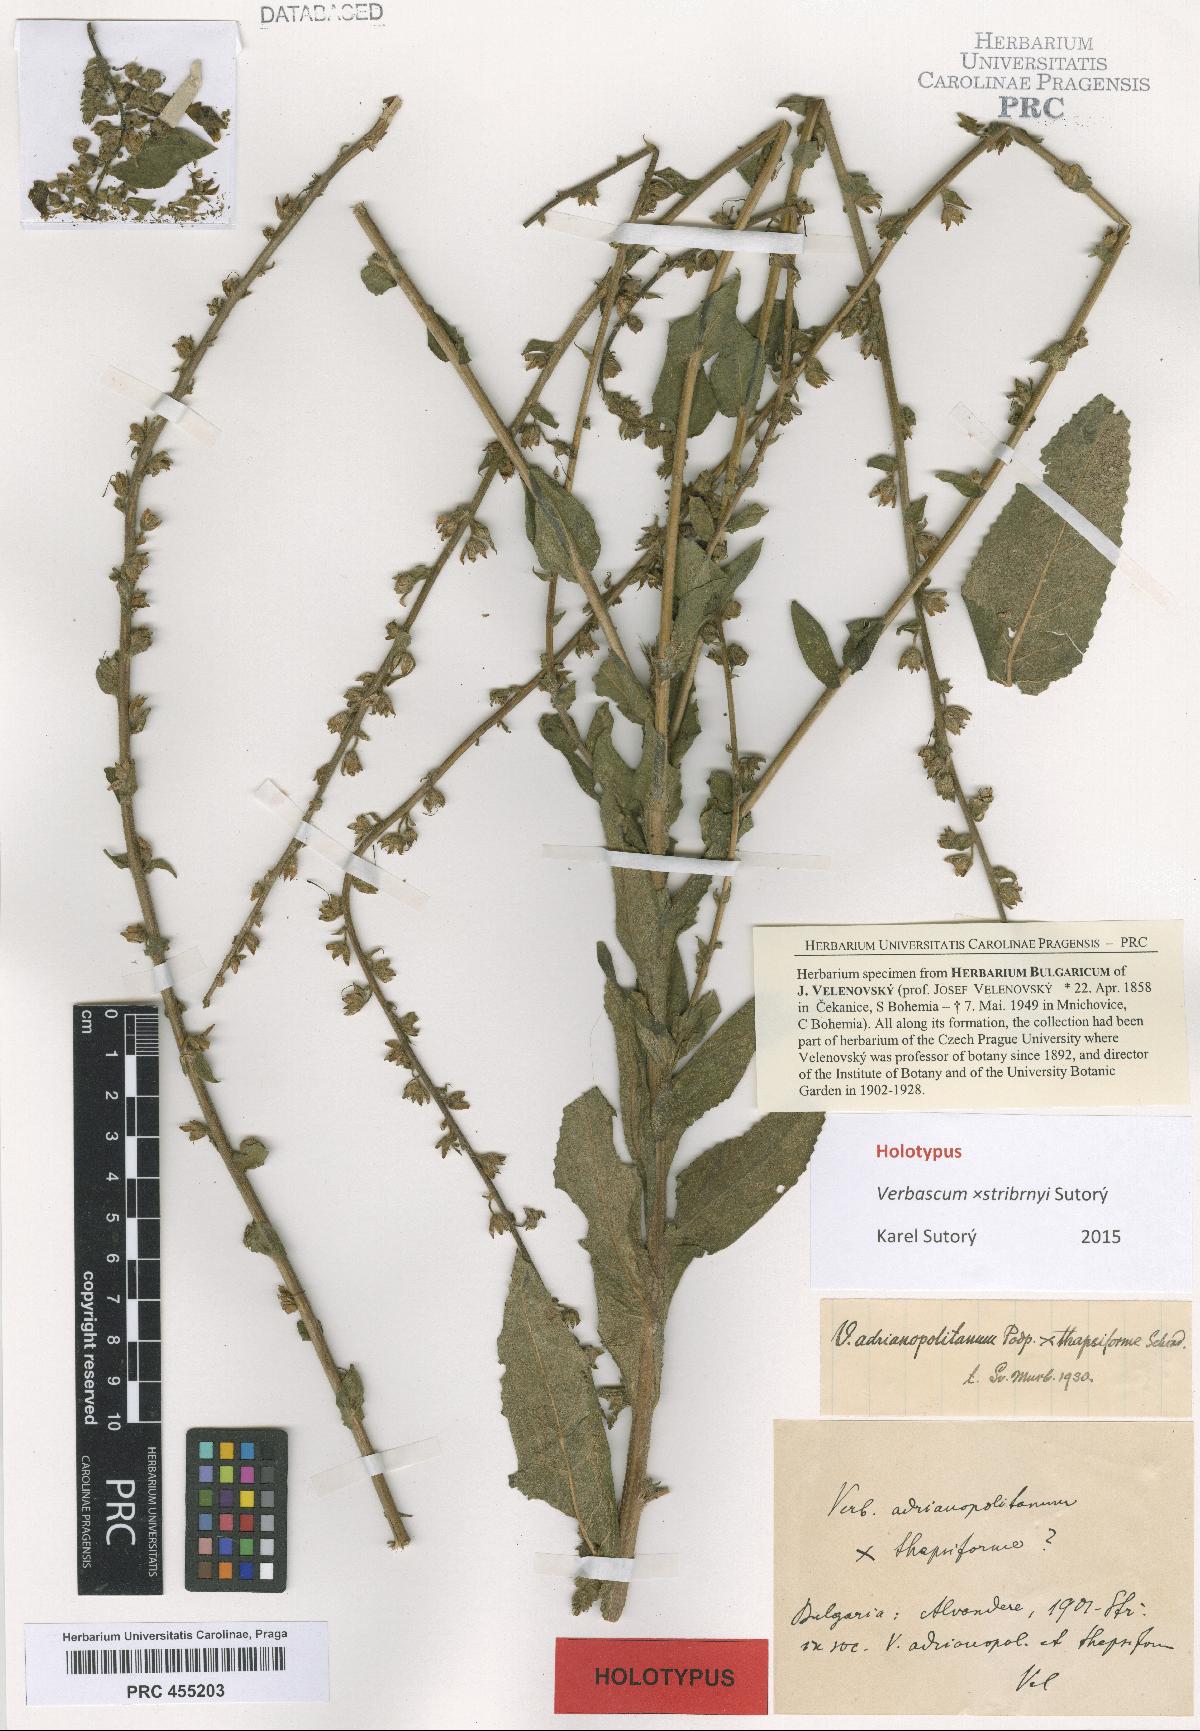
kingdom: Plantae
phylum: Tracheophyta
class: Magnoliopsida
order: Lamiales
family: Scrophulariaceae
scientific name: Scrophulariaceae
